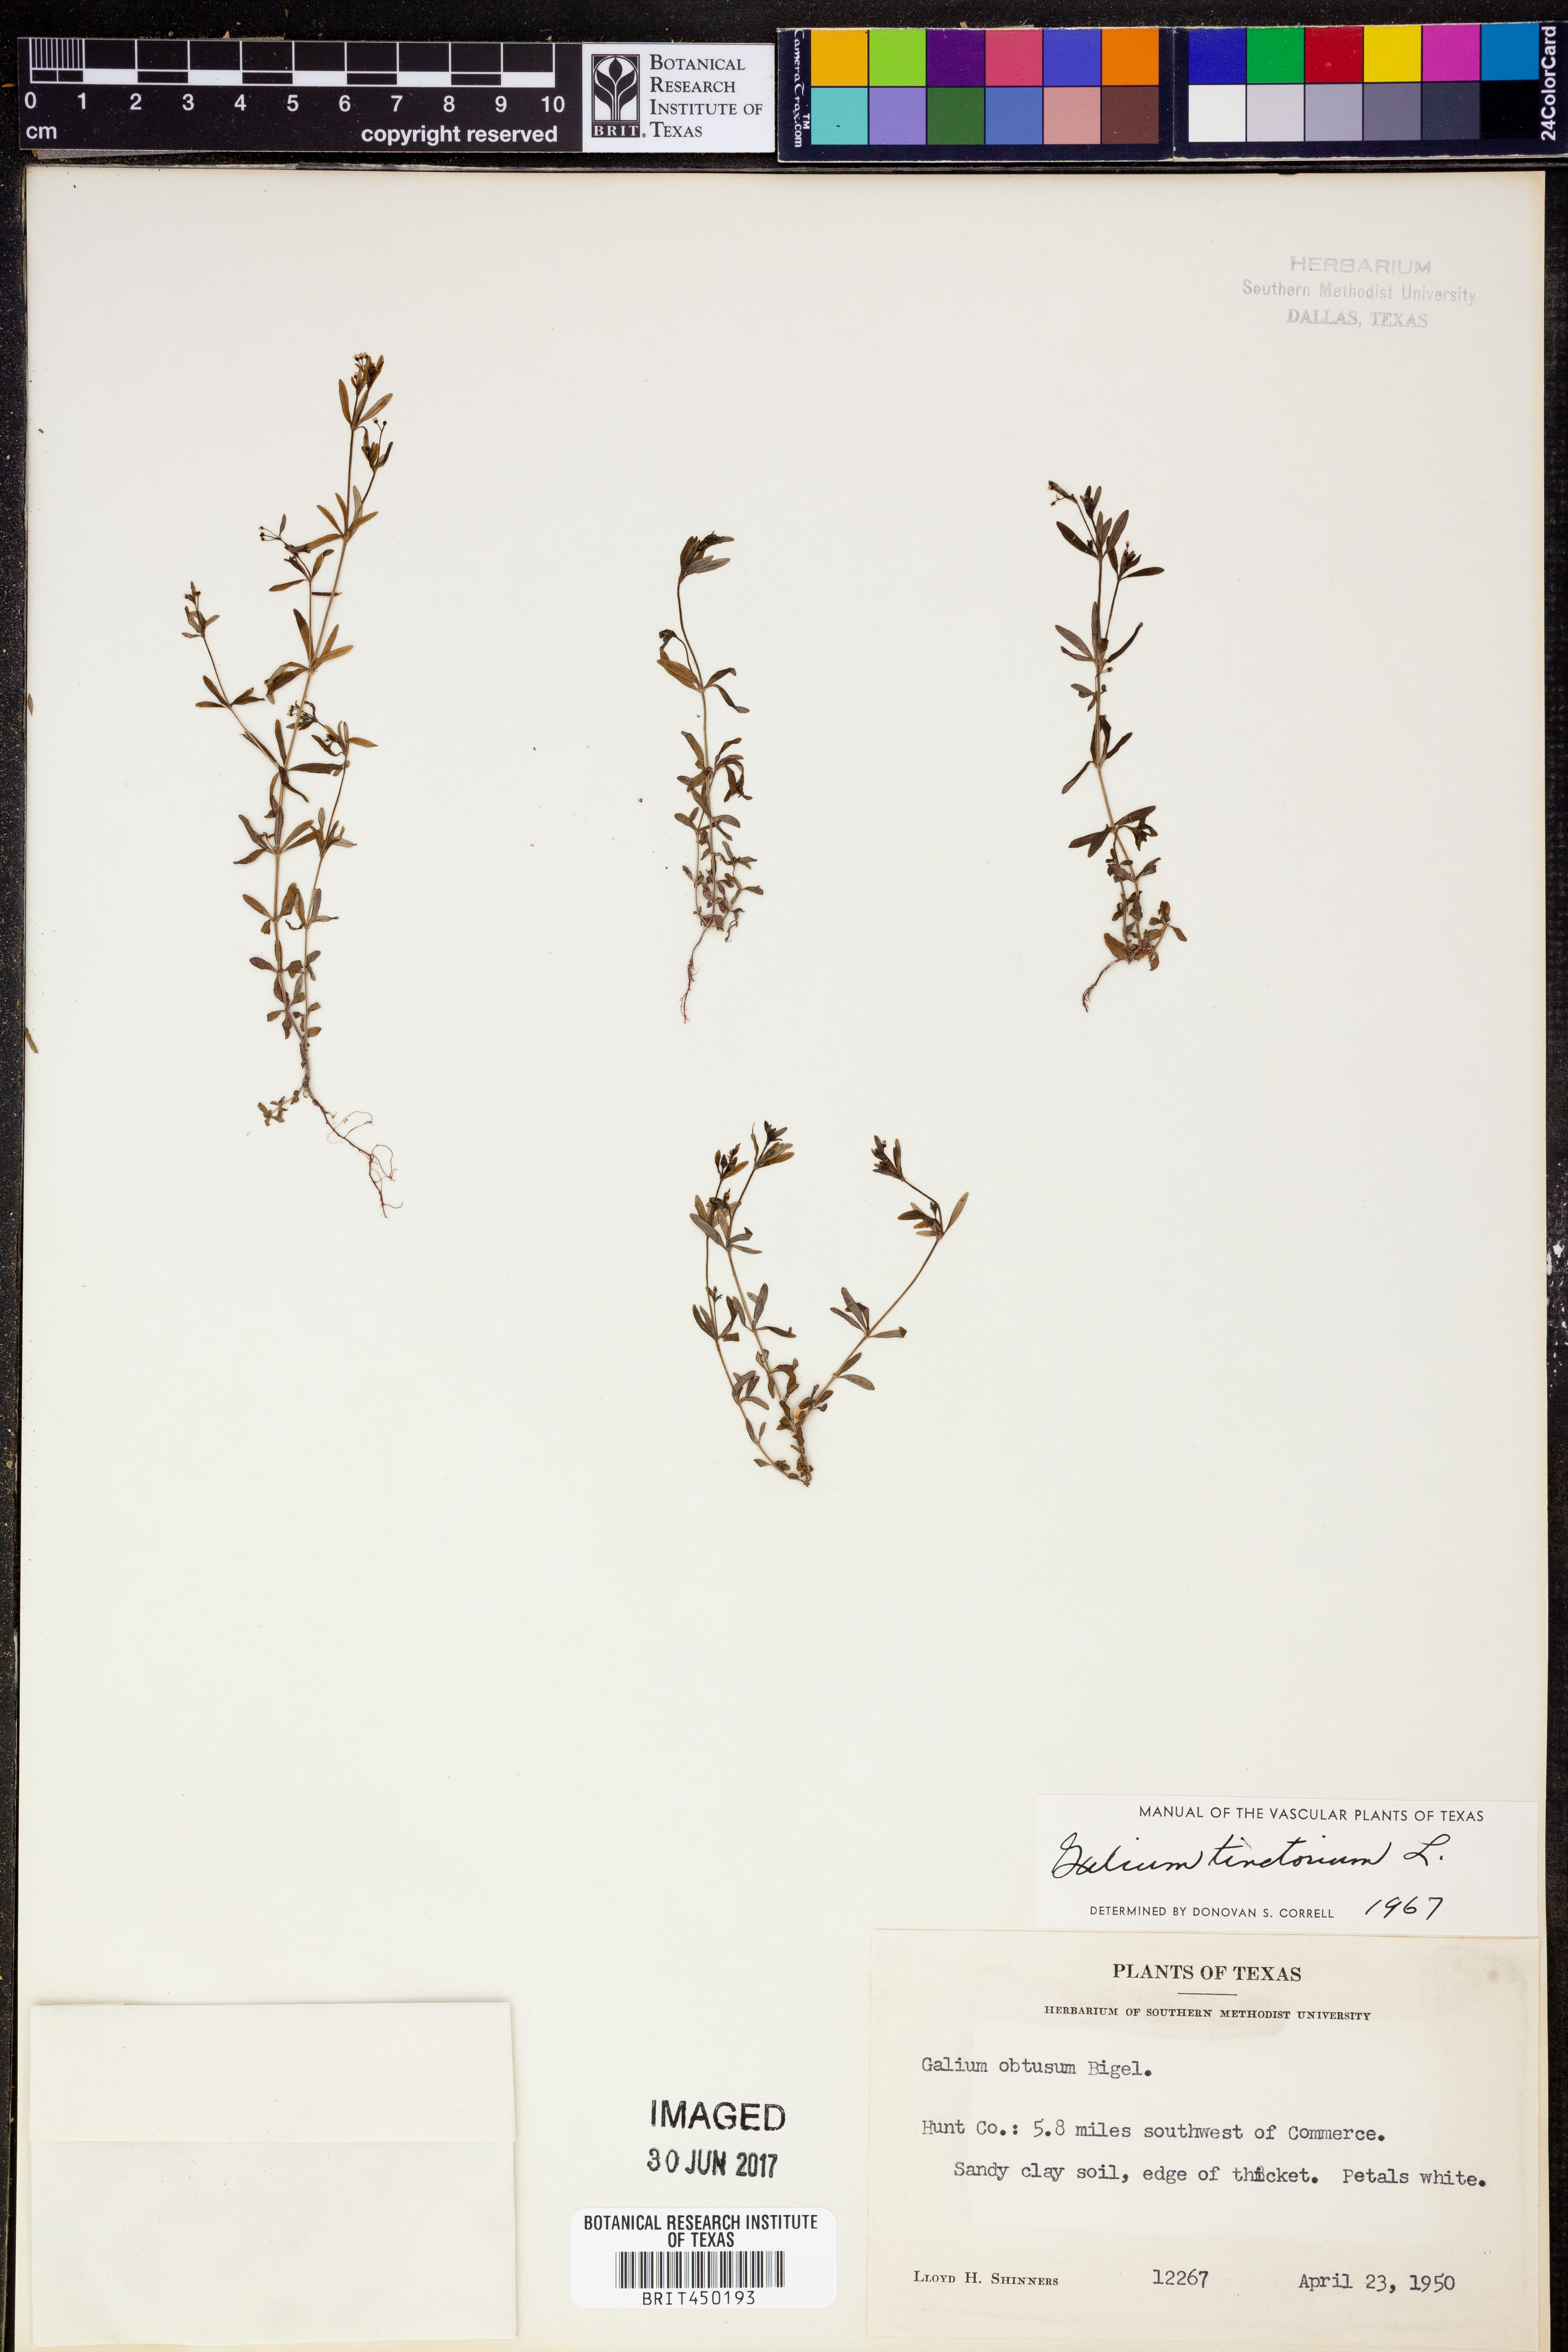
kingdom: Plantae
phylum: Tracheophyta
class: Magnoliopsida
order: Gentianales
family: Rubiaceae
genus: Asperula
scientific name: Asperula tinctoria
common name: Dyer's woodruff
